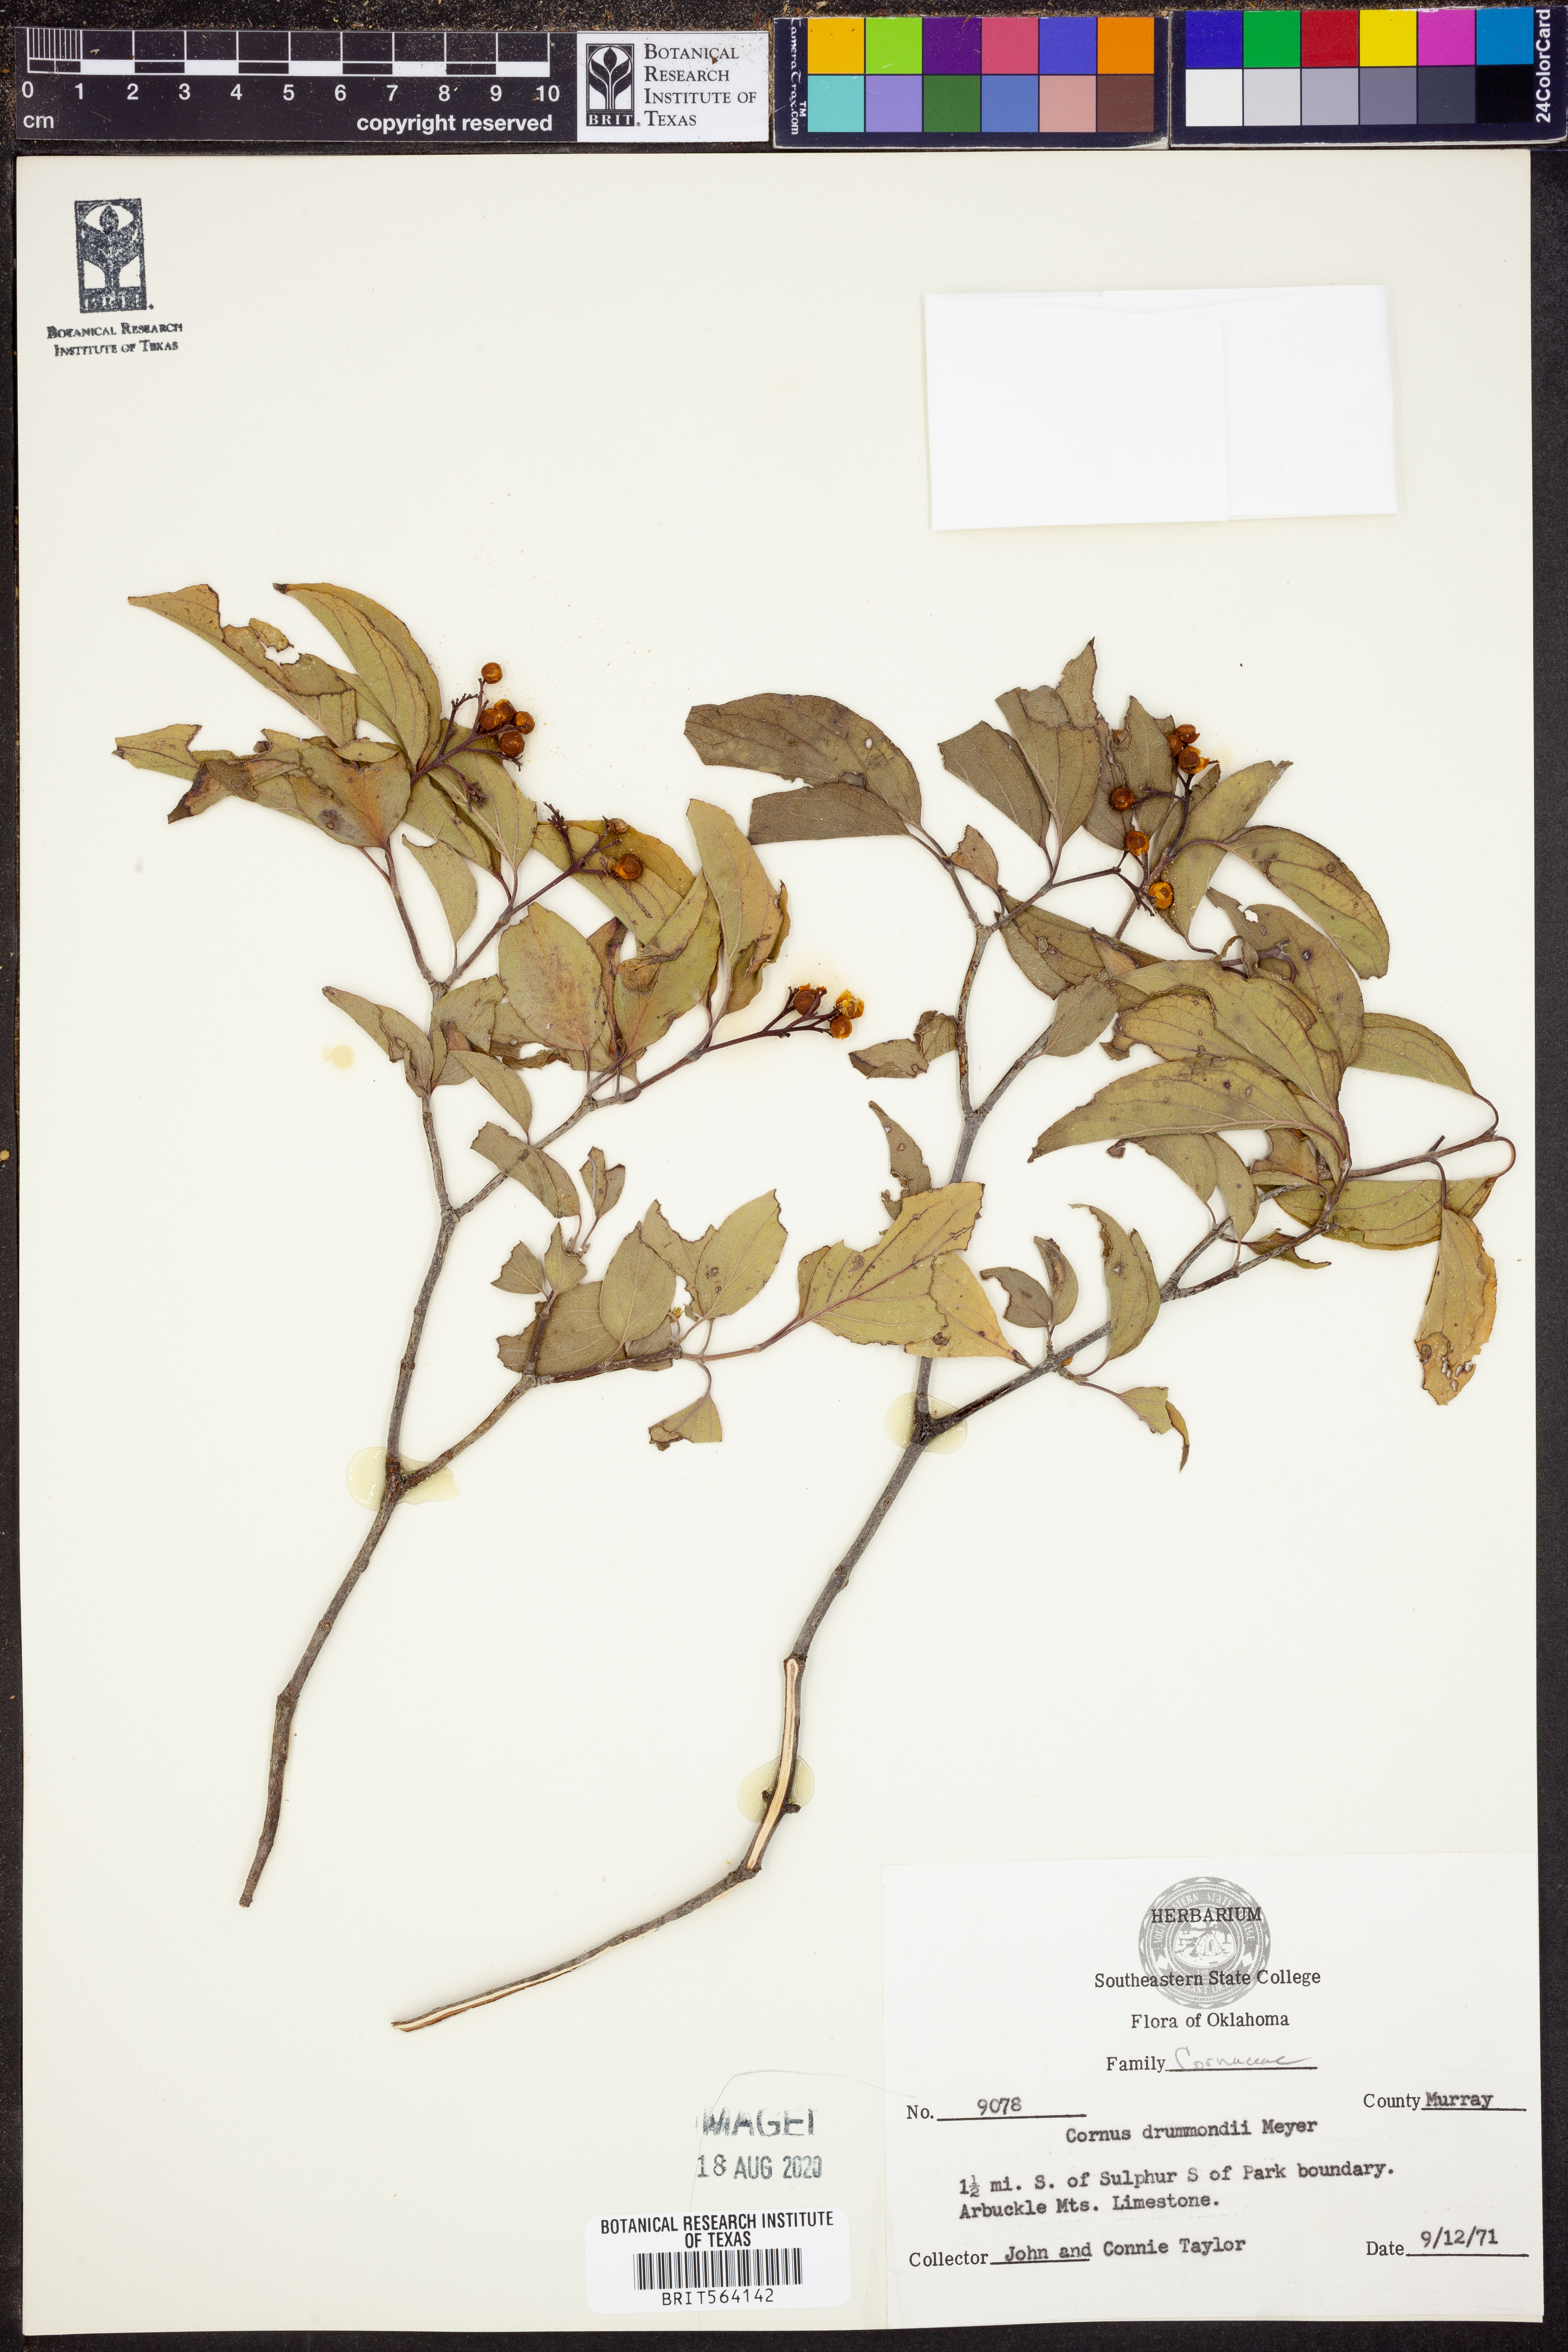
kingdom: Plantae
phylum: Tracheophyta
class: Magnoliopsida
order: Cornales
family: Cornaceae
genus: Cornus
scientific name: Cornus drummondii
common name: Rough-leaf dogwood
